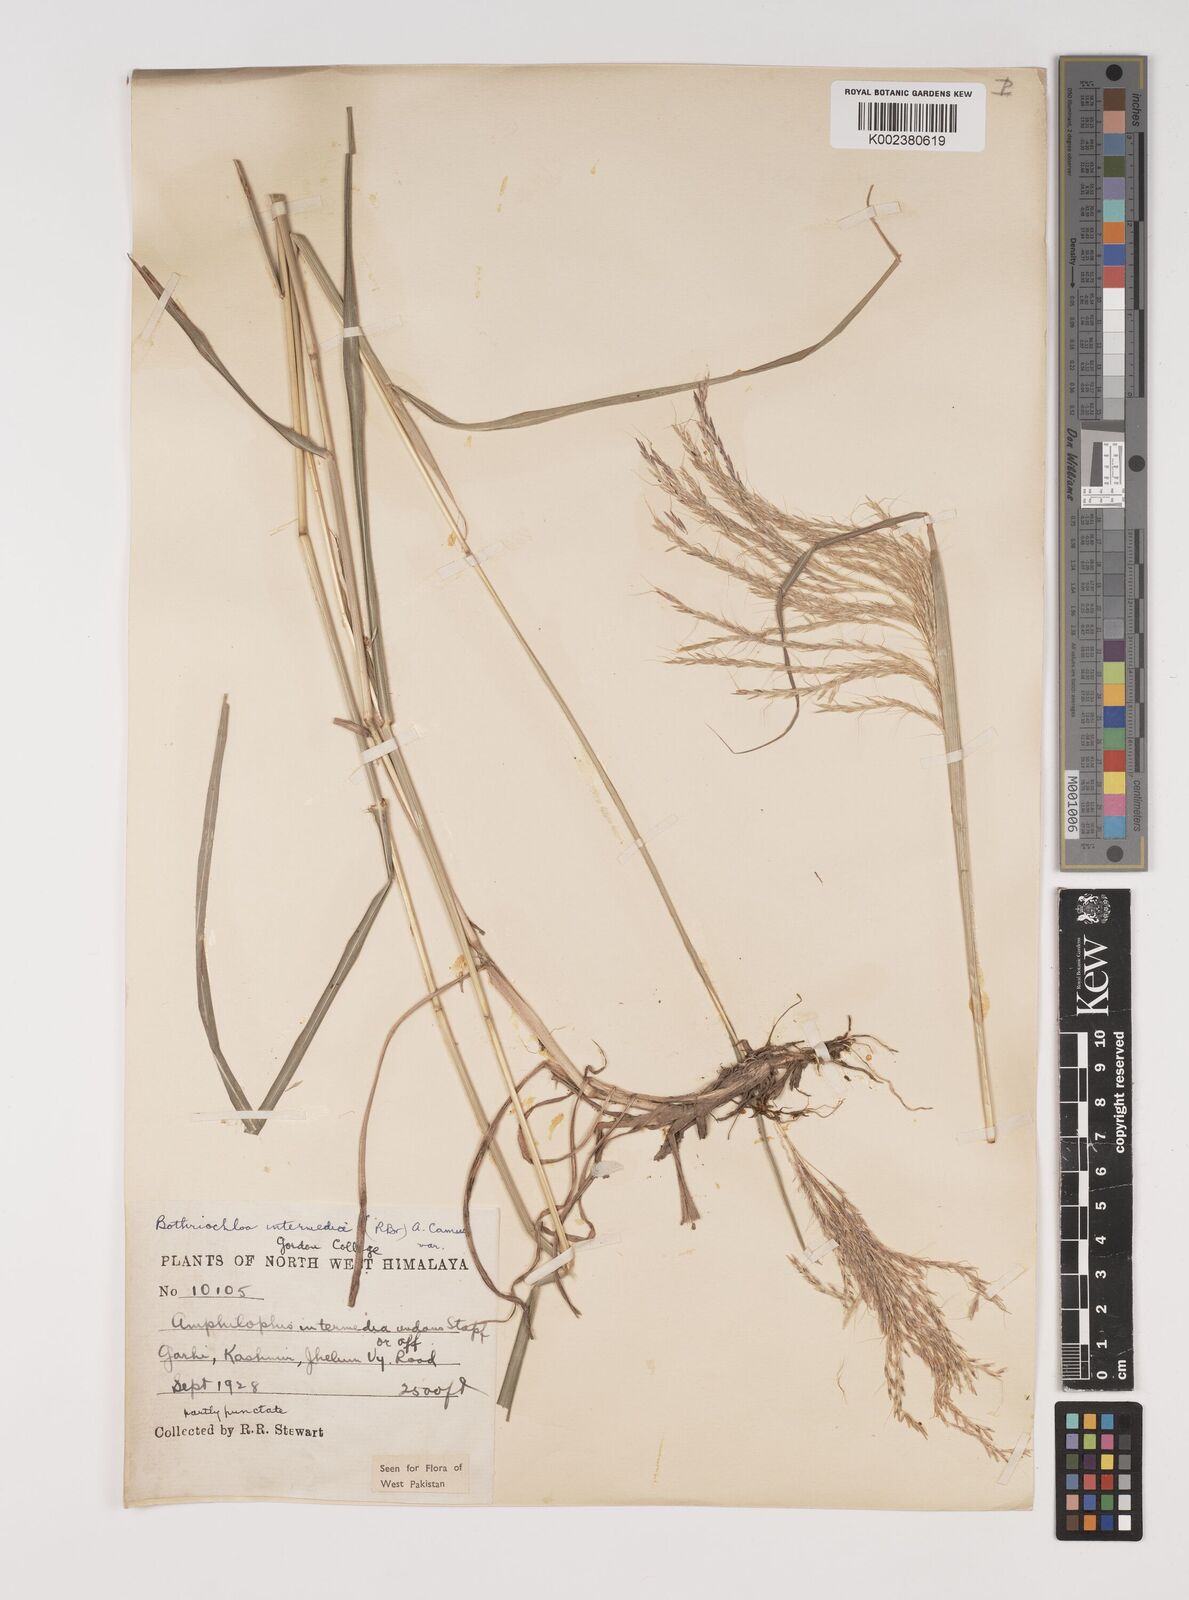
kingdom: Plantae
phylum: Tracheophyta
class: Liliopsida
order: Poales
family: Poaceae
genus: Bothriochloa
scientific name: Bothriochloa bladhii
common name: Caucasian bluestem
